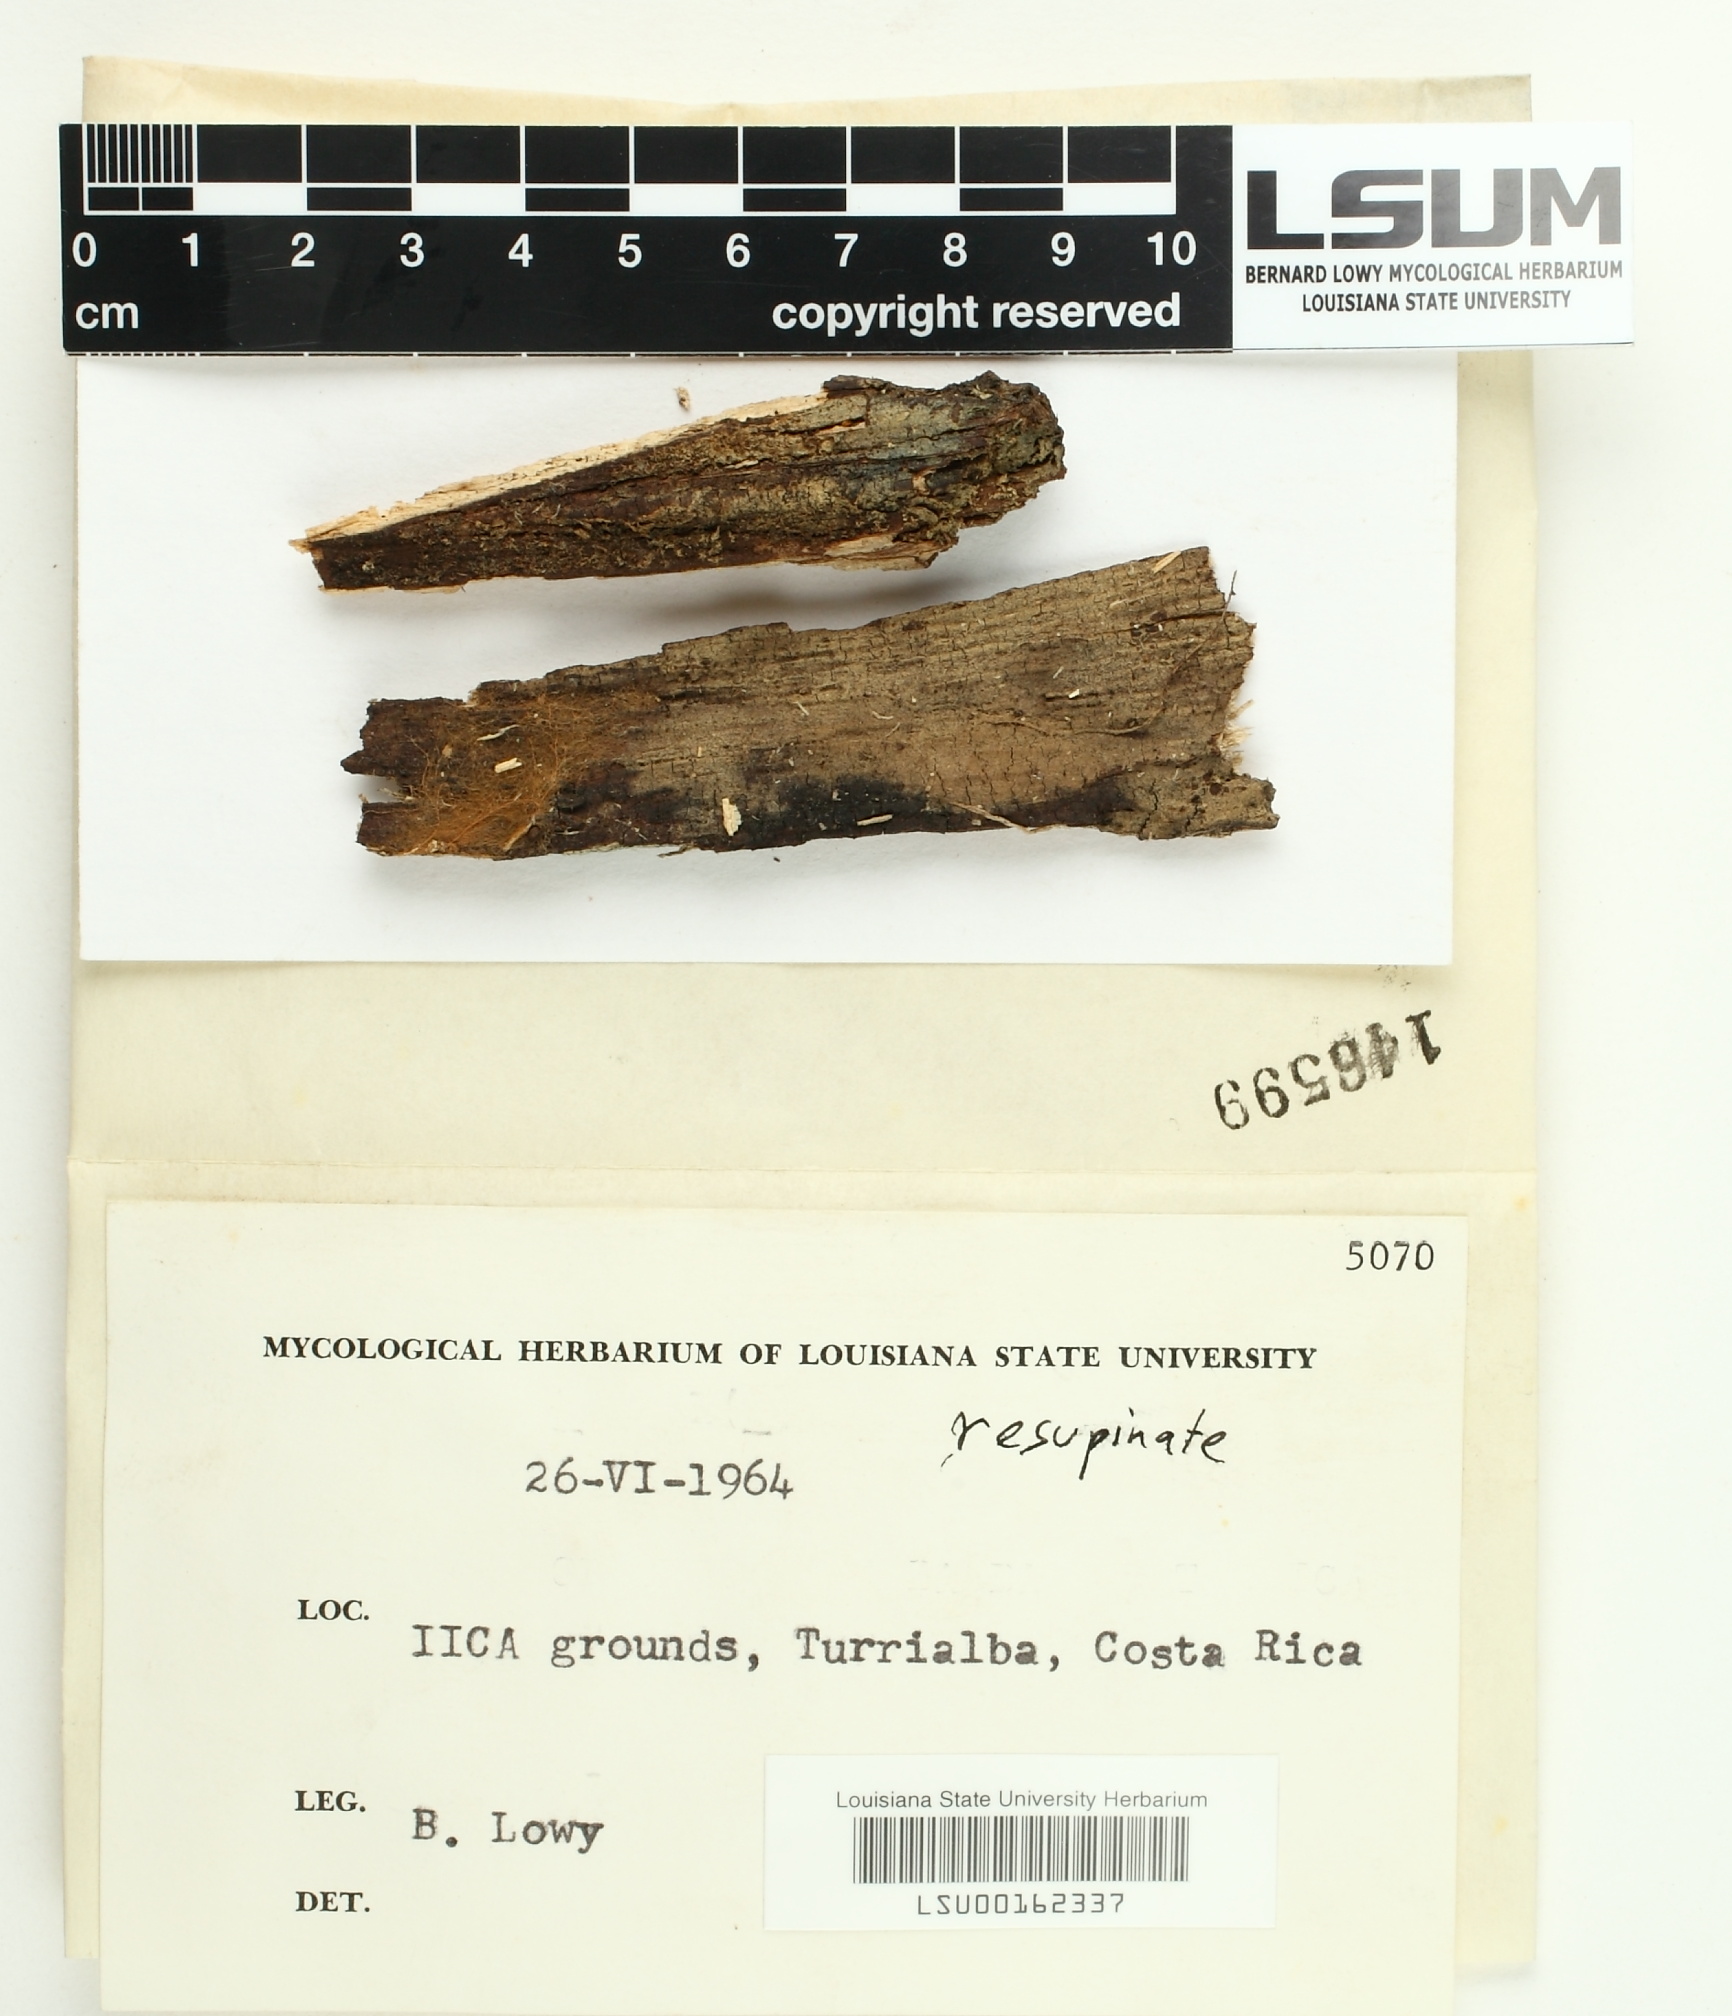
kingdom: Fungi
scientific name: Fungi
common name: Fungi
